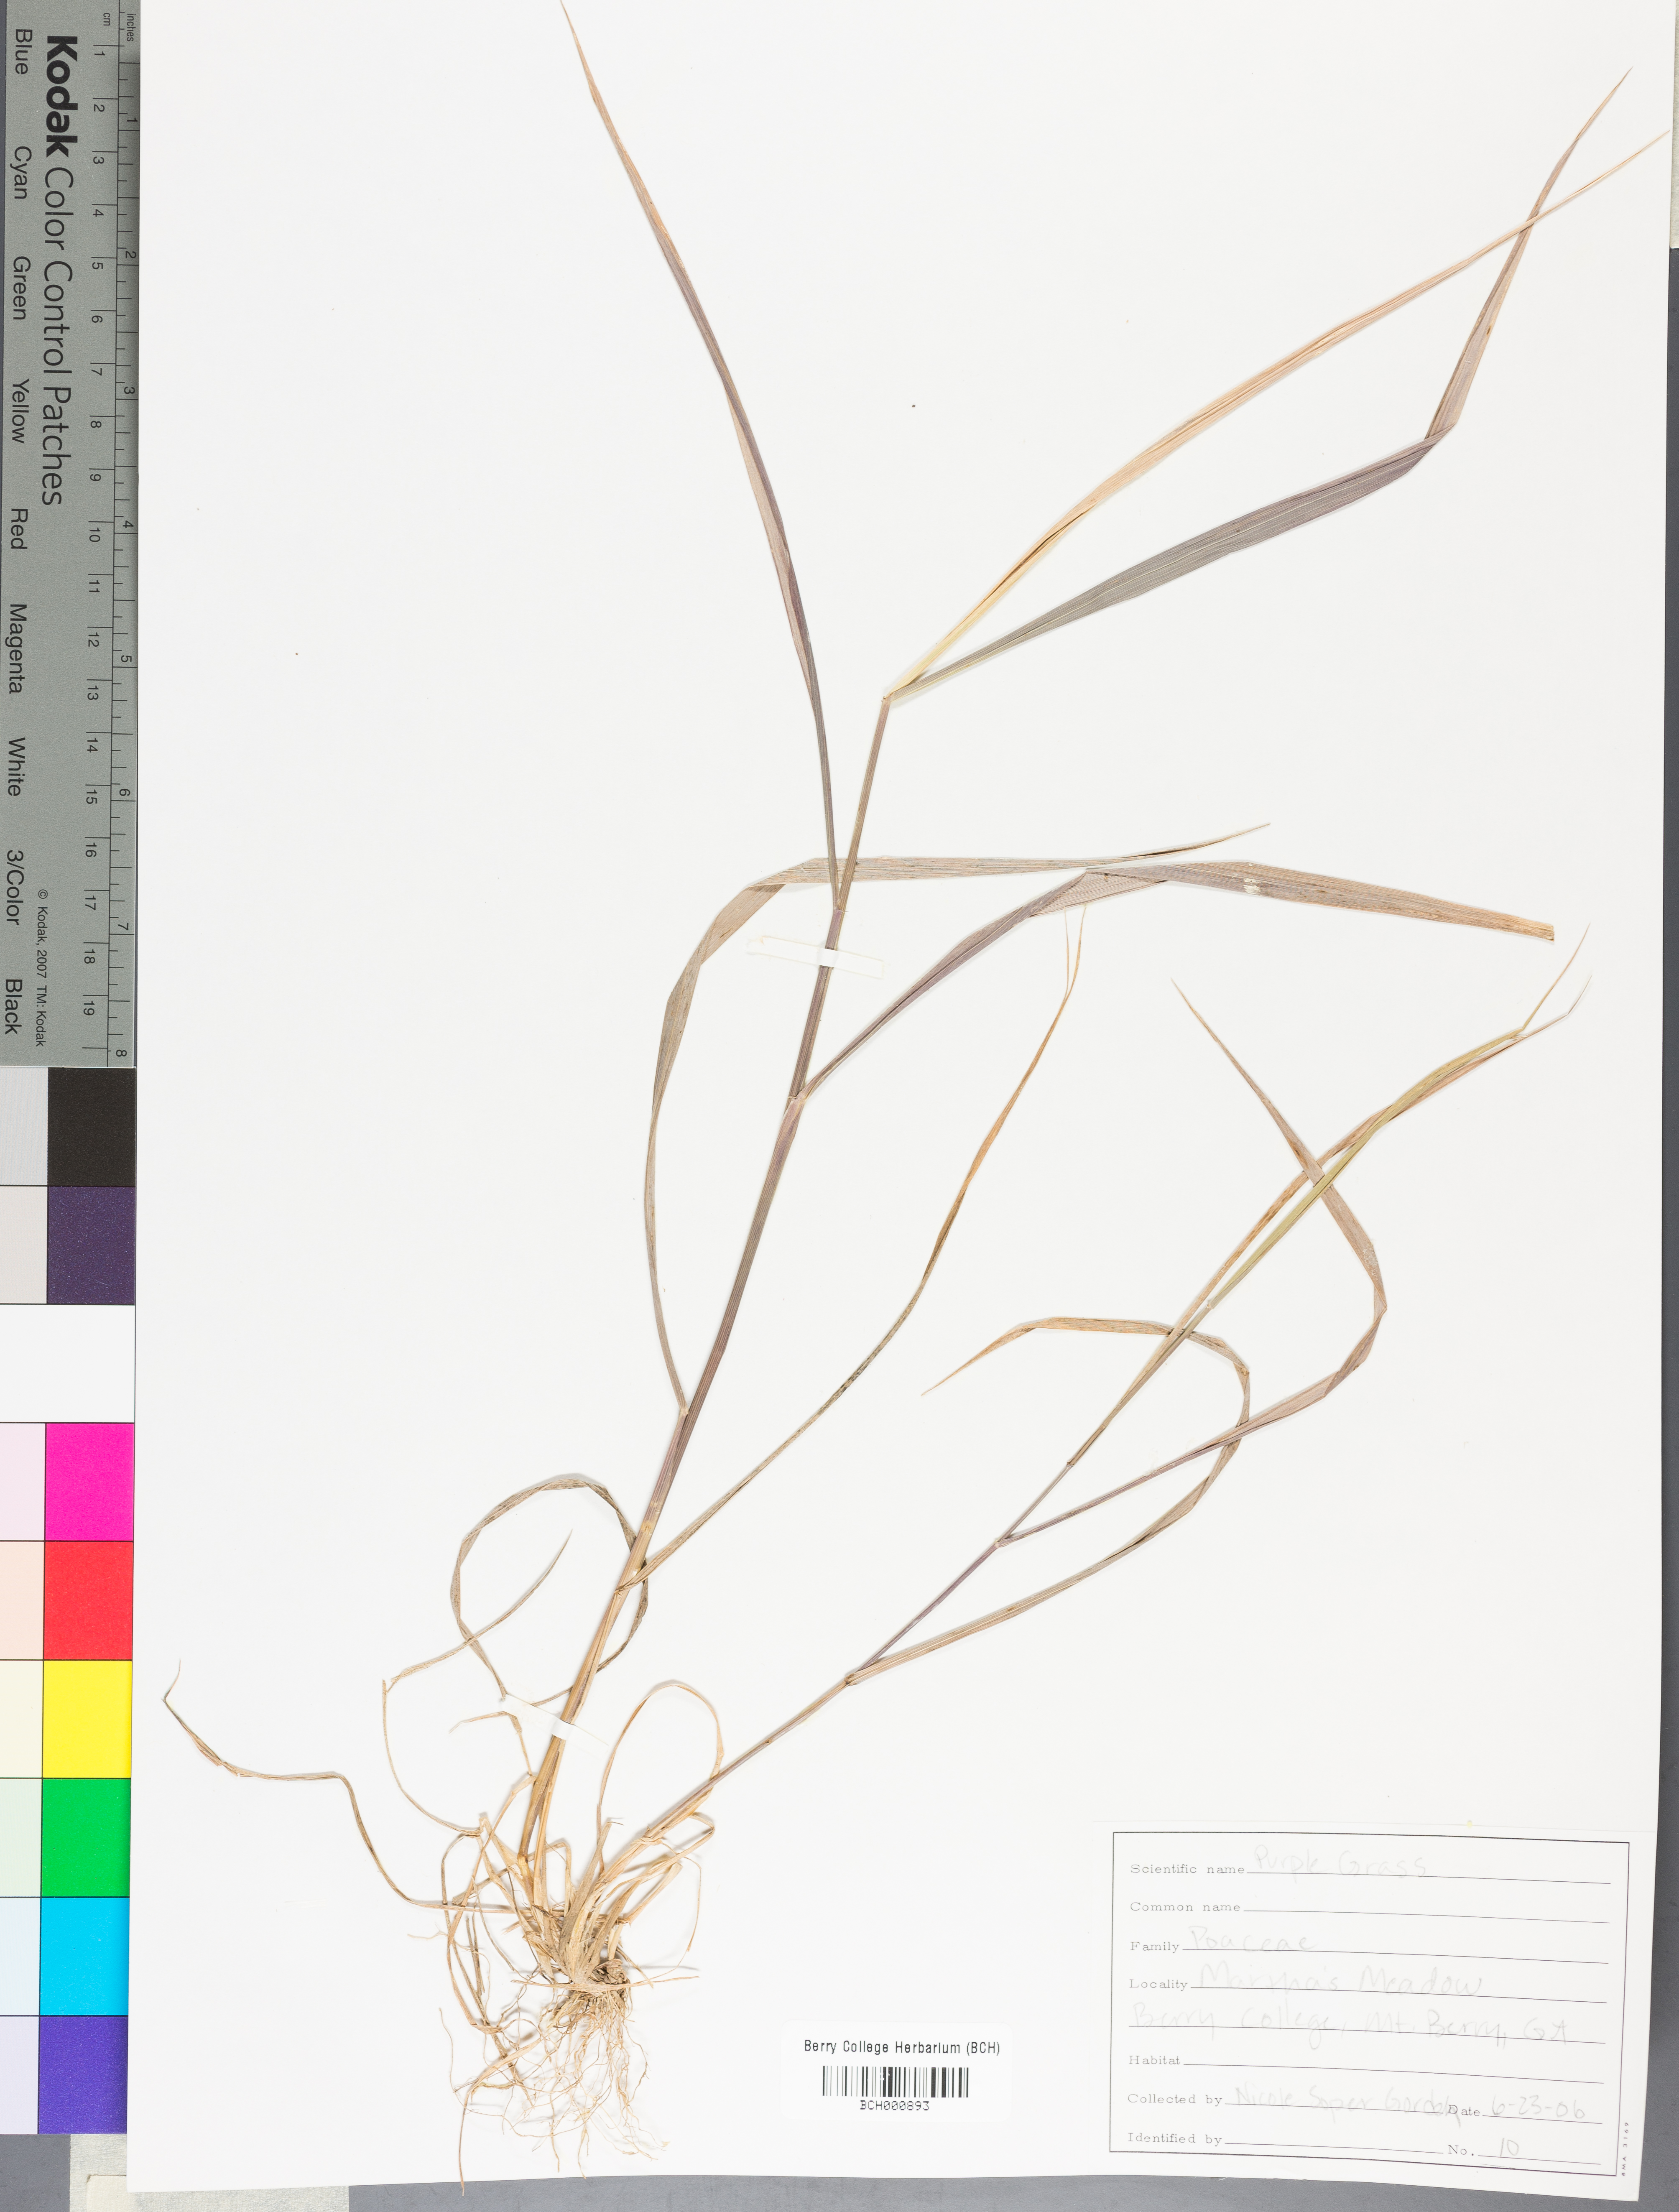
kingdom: Plantae
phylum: Tracheophyta
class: Magnoliopsida
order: Lamiales
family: Acanthaceae
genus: Adhatoda
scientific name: Adhatoda
